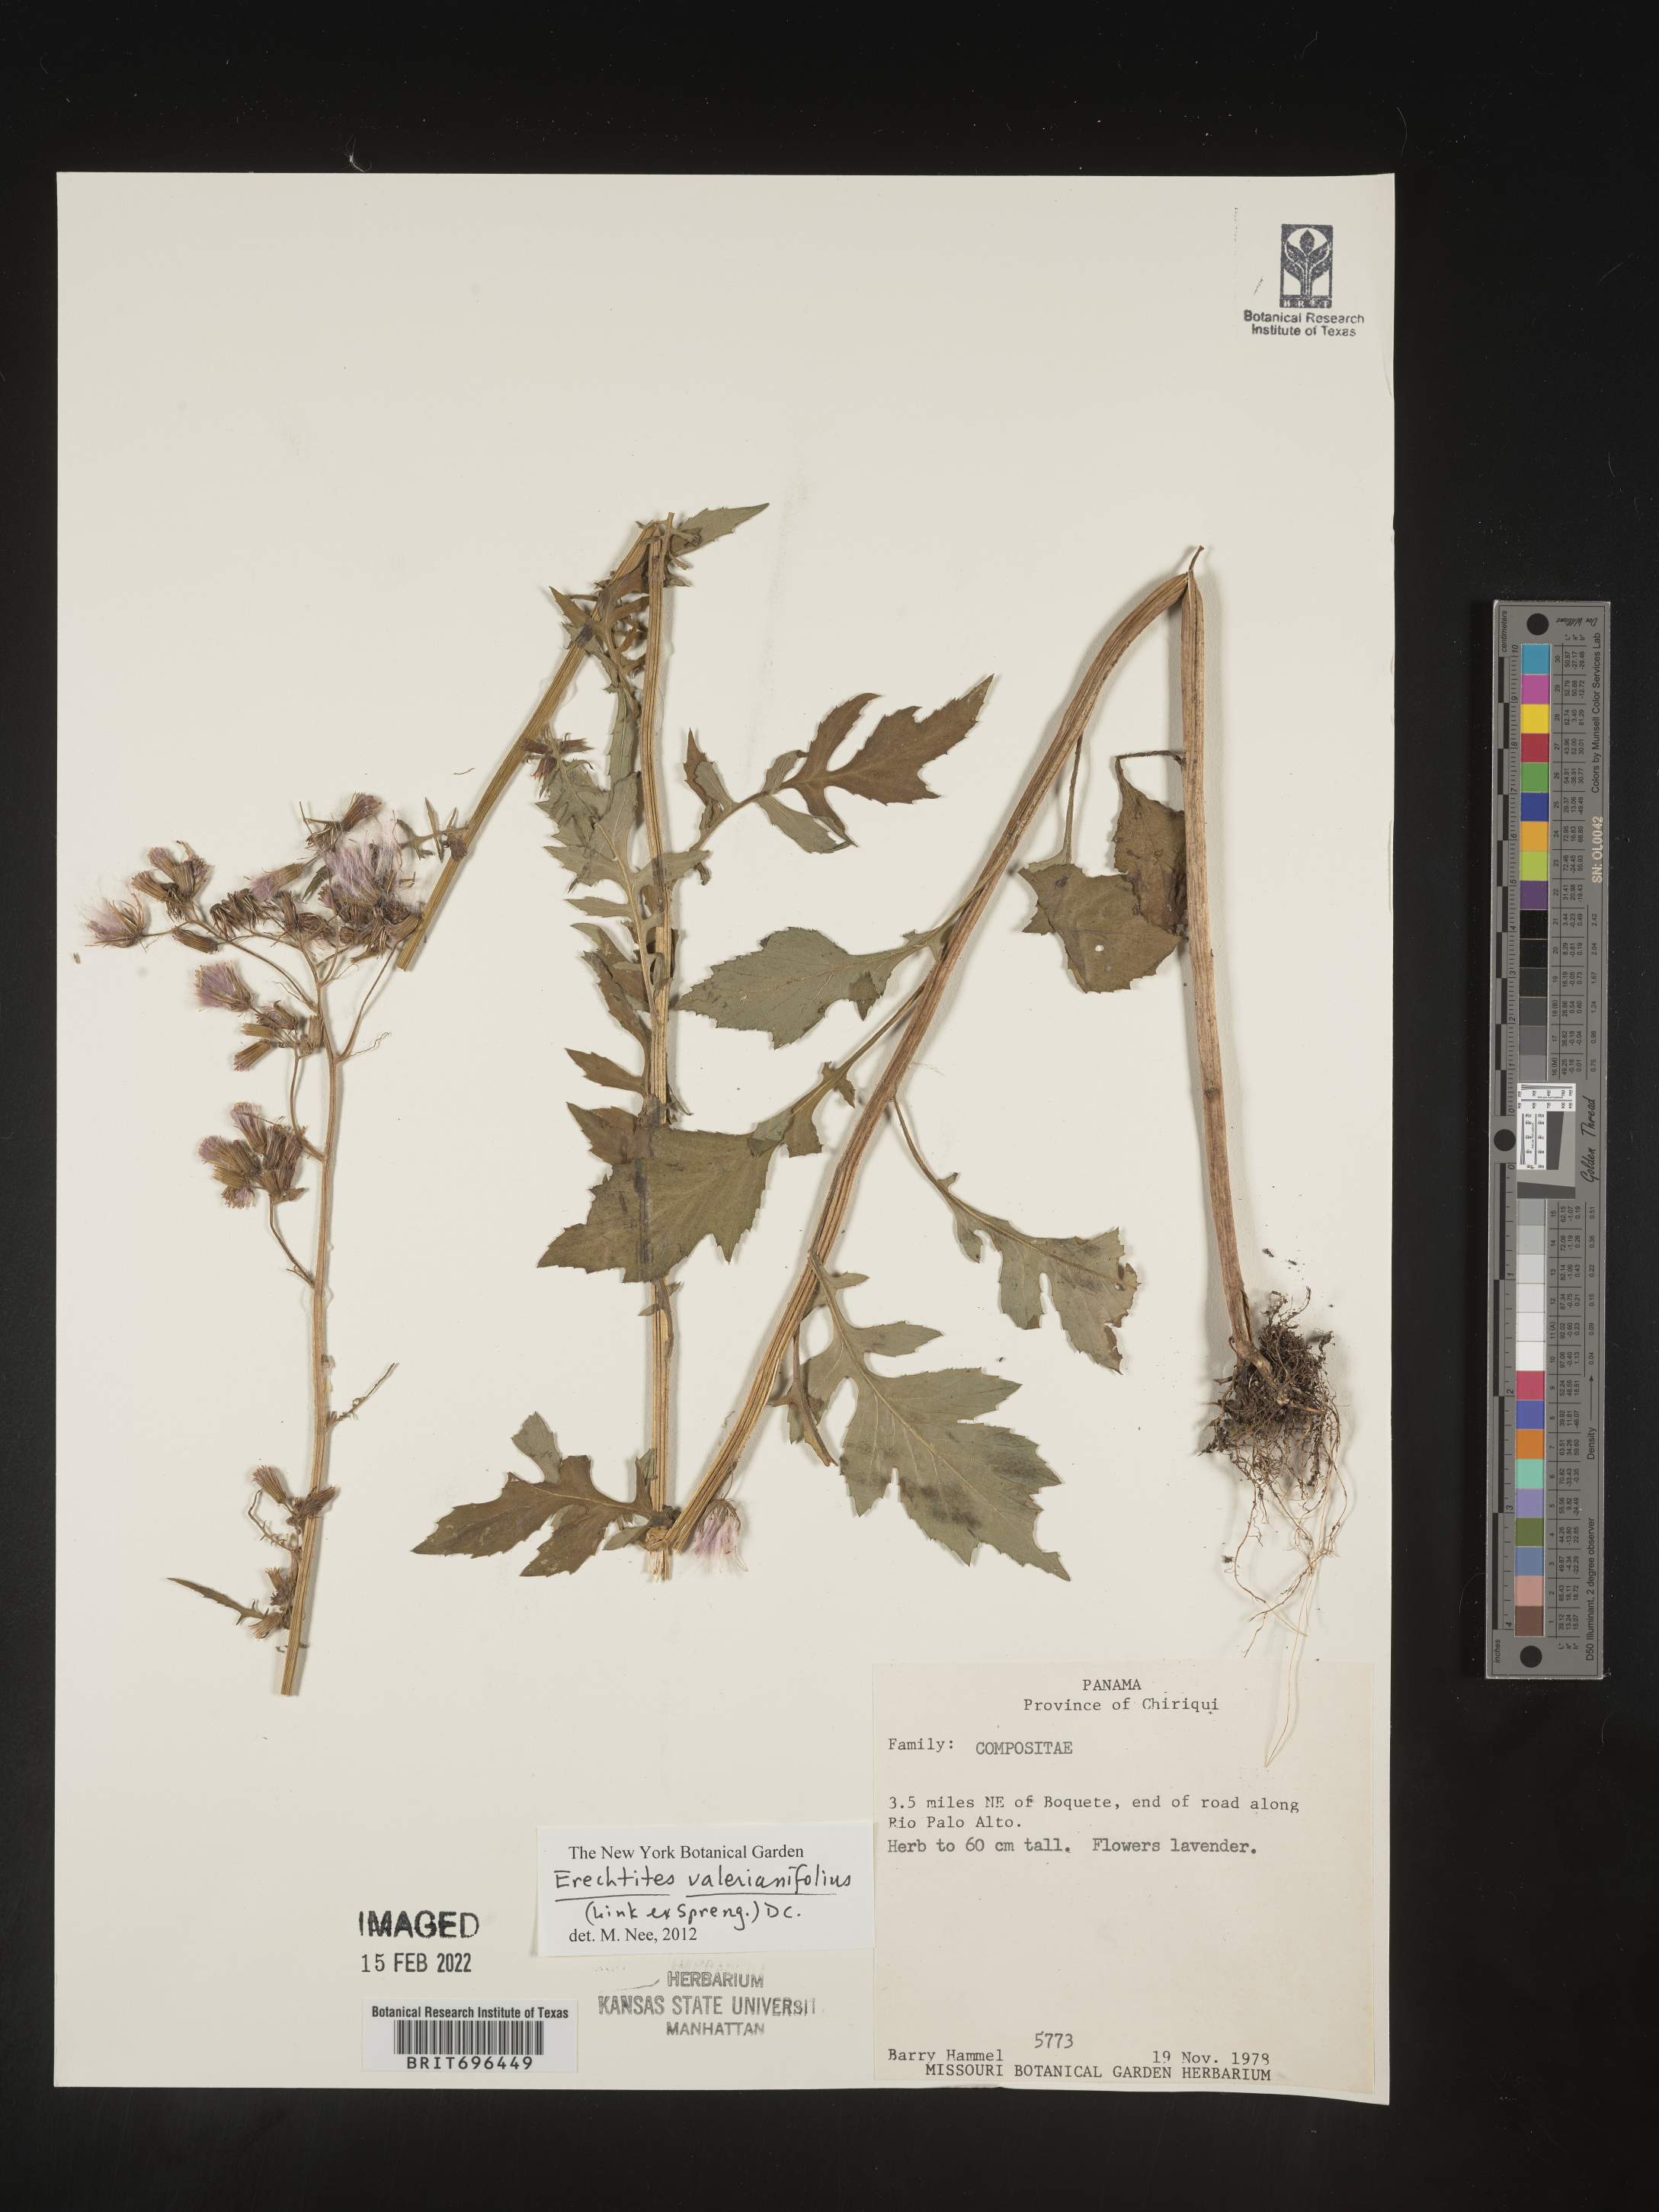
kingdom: Plantae
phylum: Tracheophyta
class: Magnoliopsida
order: Asterales
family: Asteraceae
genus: Erechtites
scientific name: Erechtites
